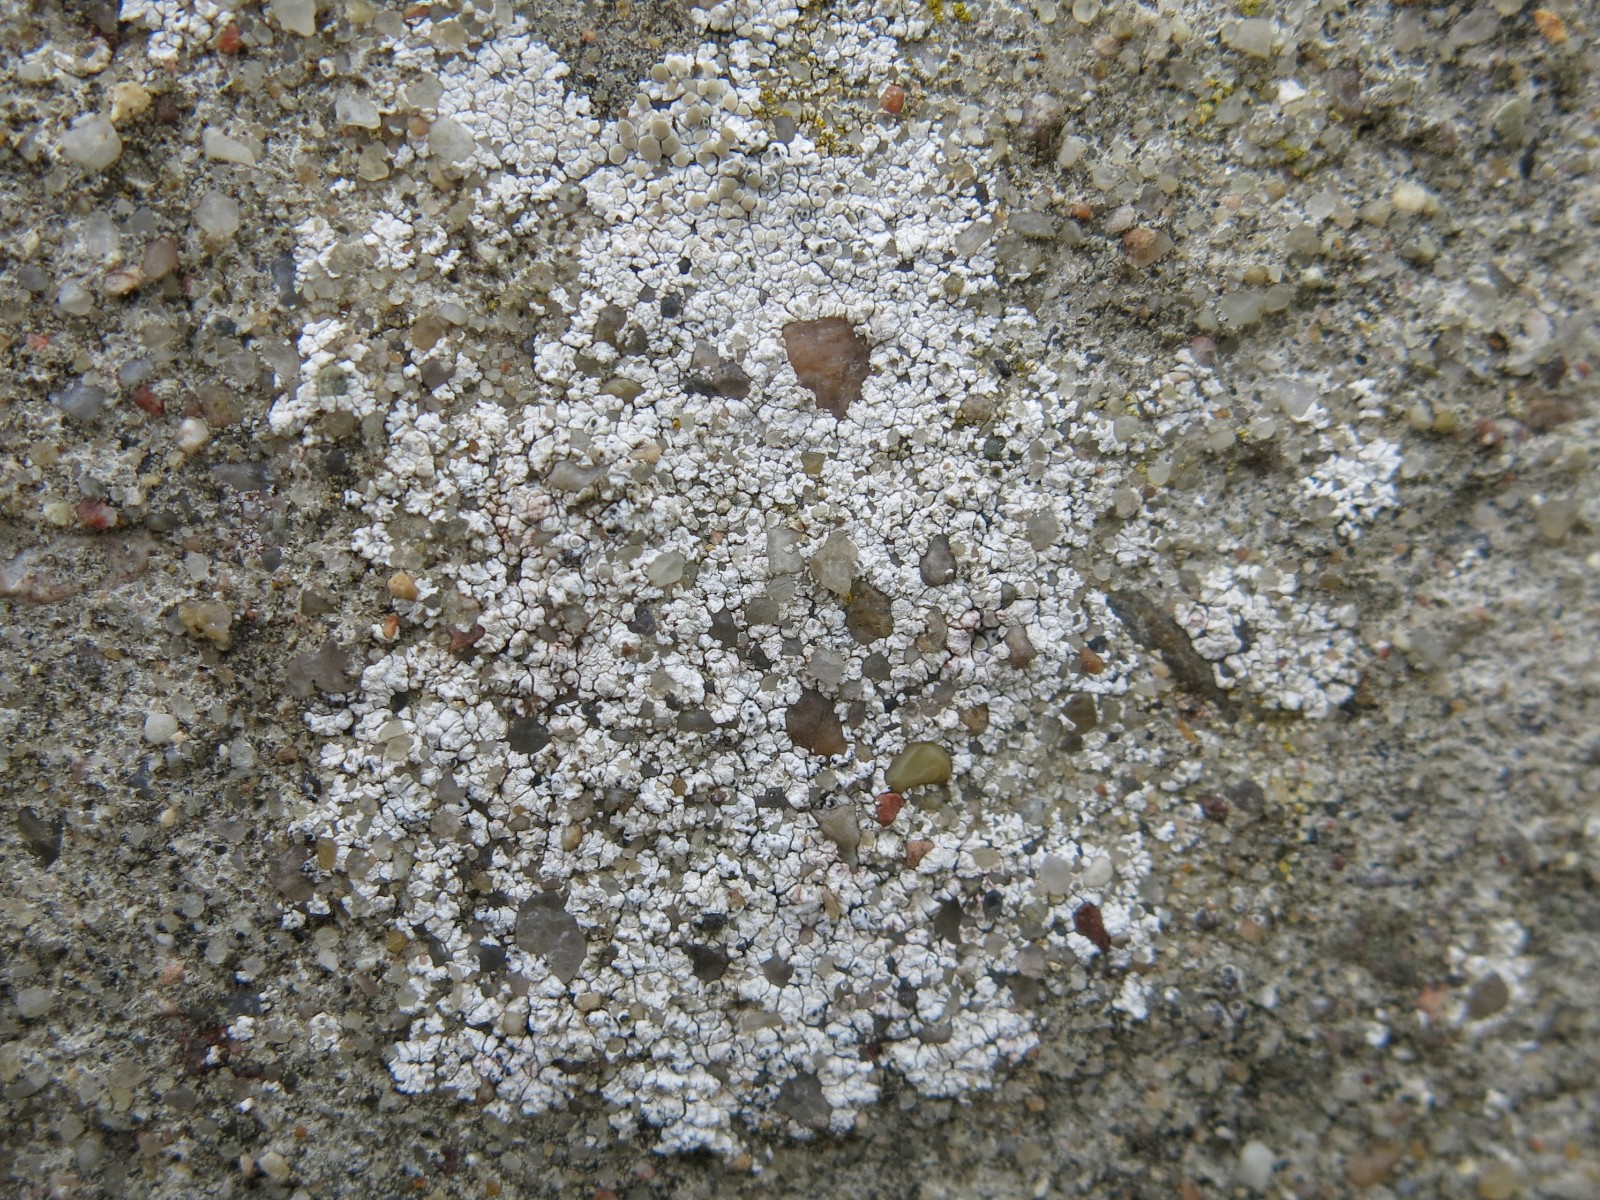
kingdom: Fungi
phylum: Ascomycota
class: Lecanoromycetes
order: Lecanorales
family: Lecanoraceae
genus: Polyozosia
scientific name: Polyozosia albescens
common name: cement-kantskivelav
